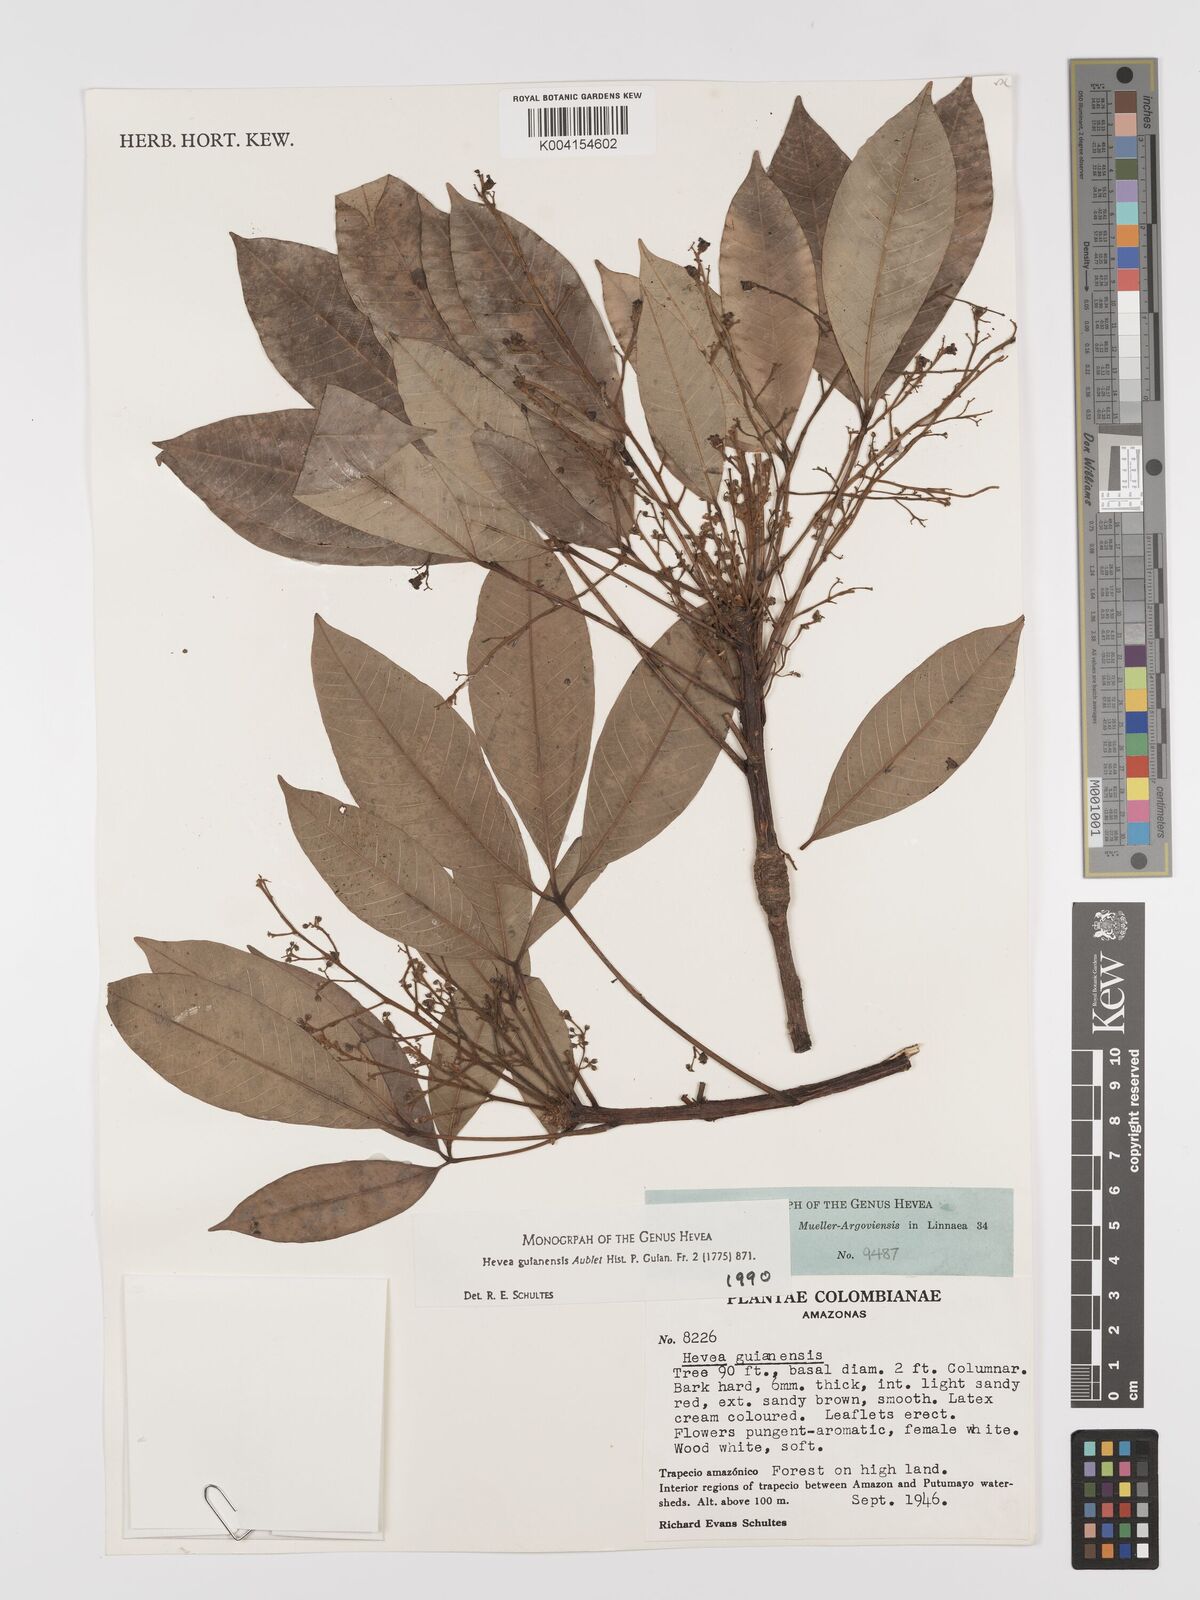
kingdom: Plantae
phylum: Tracheophyta
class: Magnoliopsida
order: Malpighiales
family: Euphorbiaceae
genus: Hevea
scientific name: Hevea guianensis
